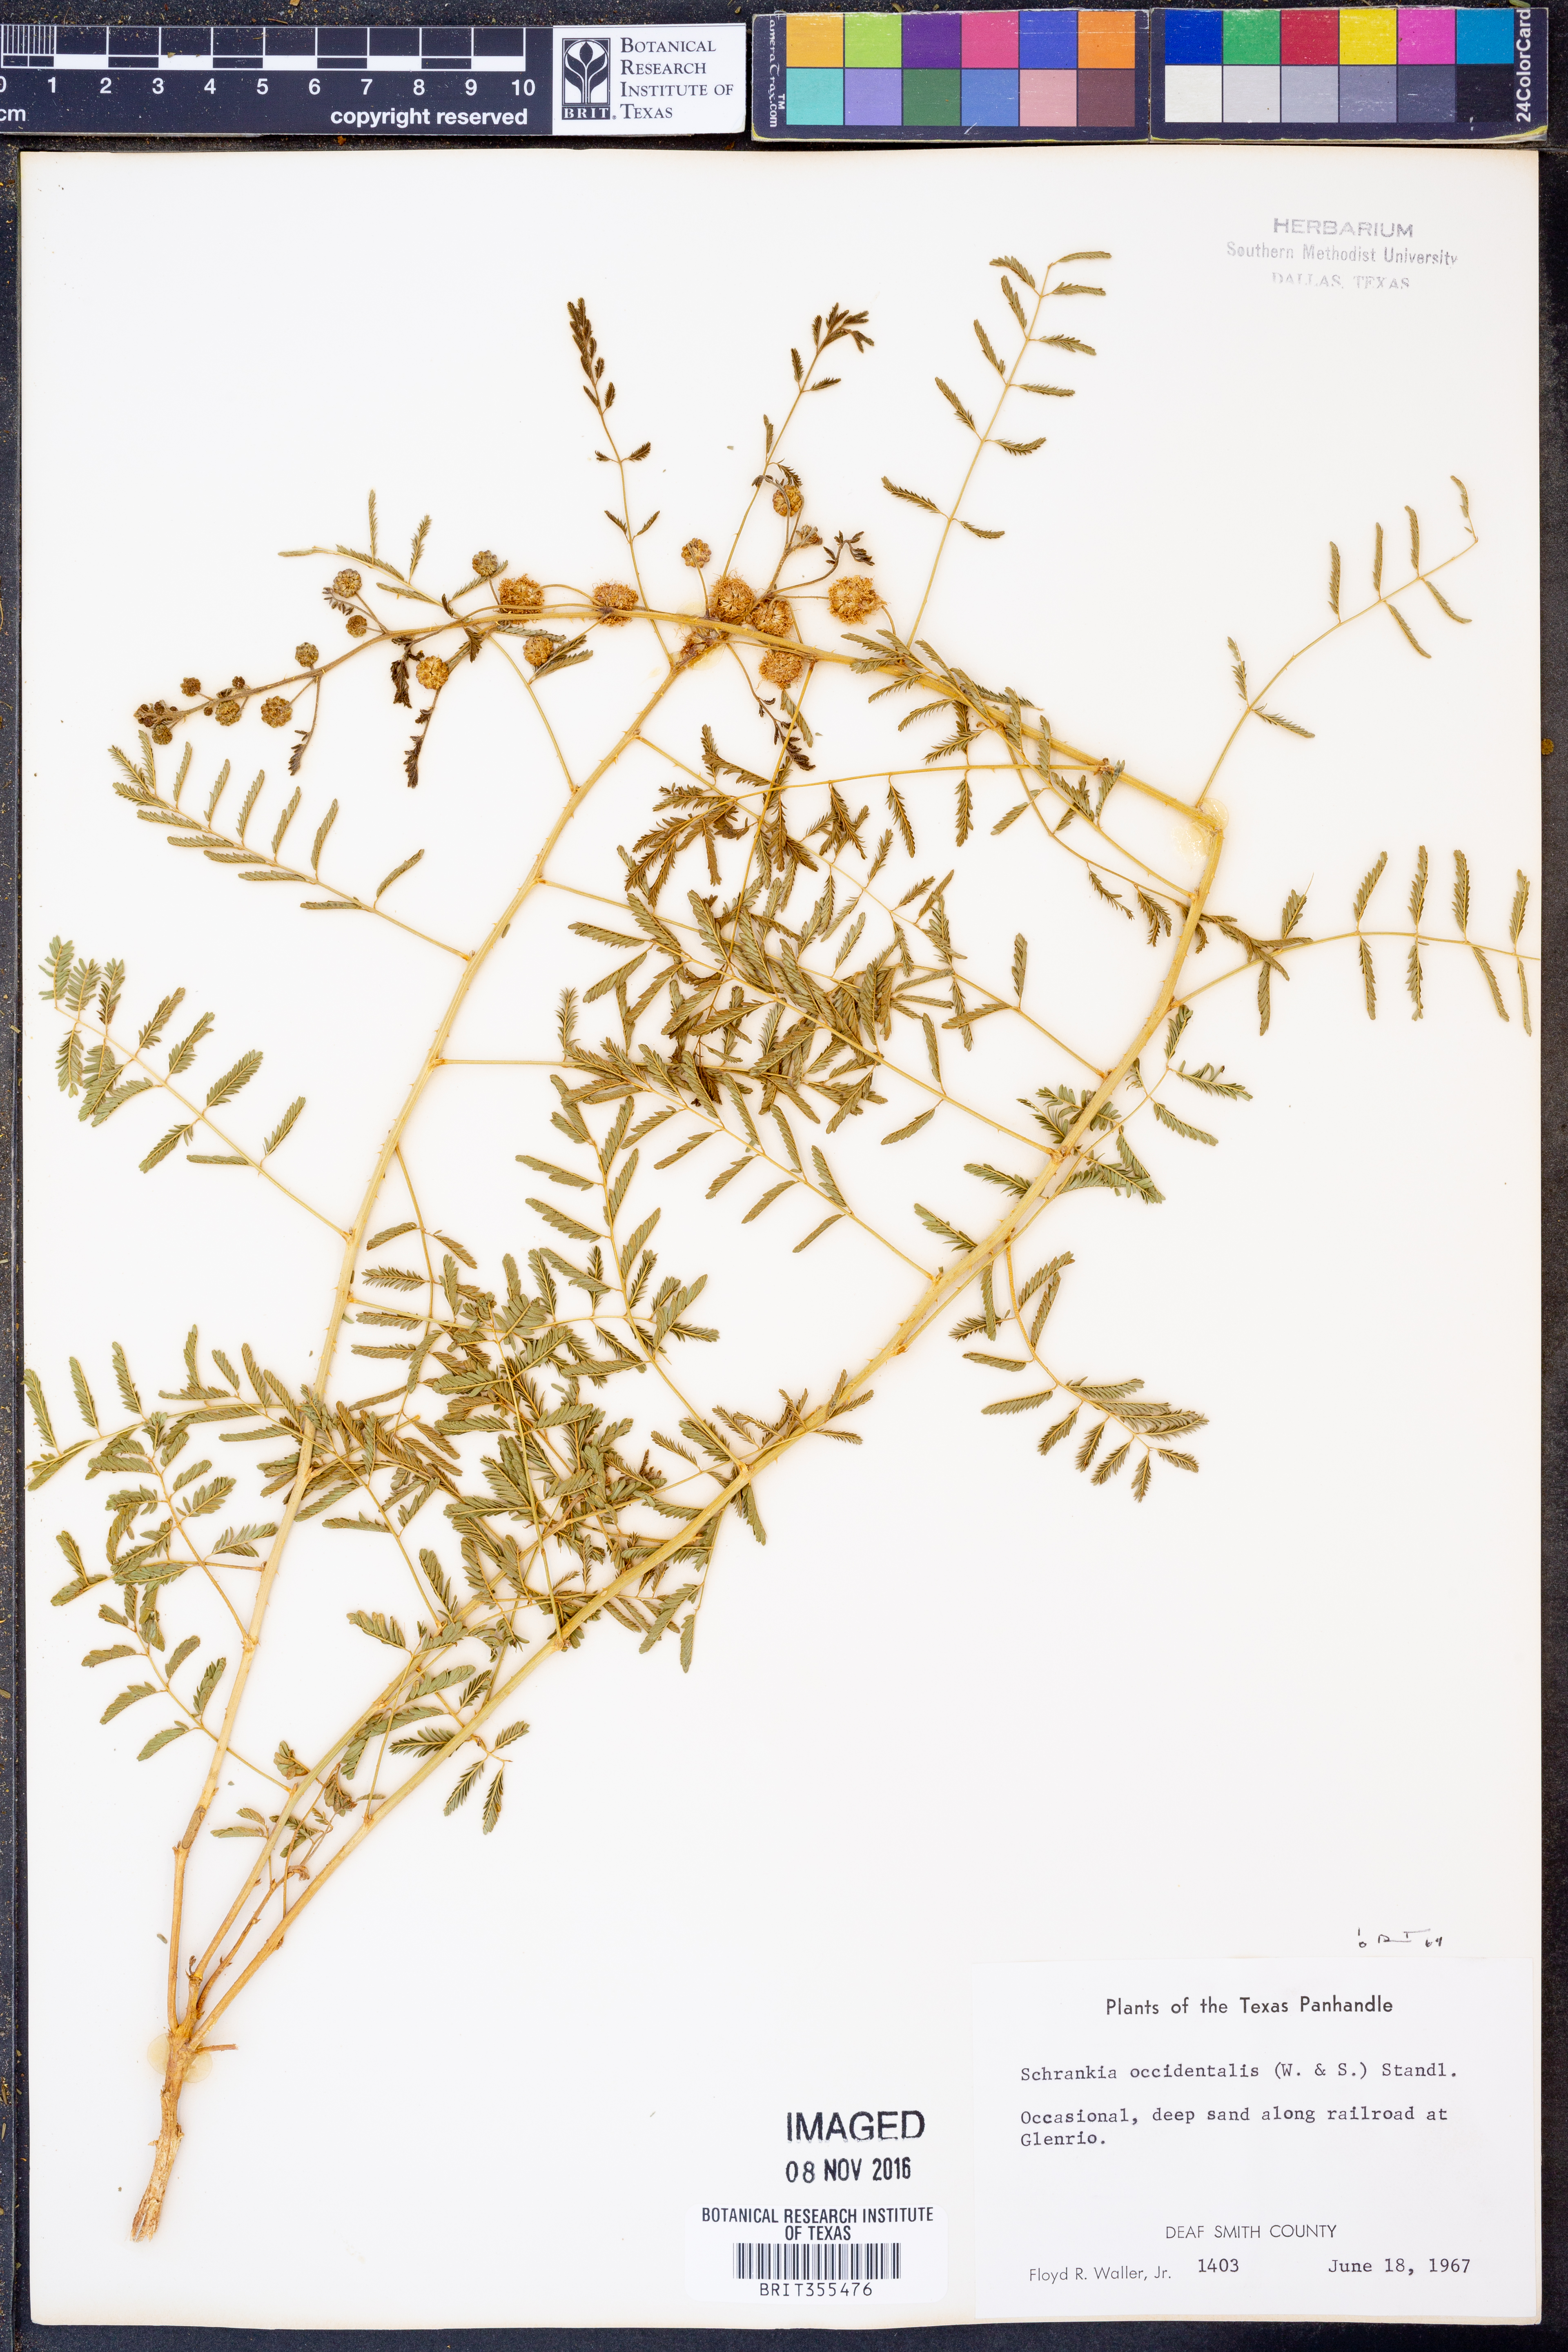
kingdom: Plantae
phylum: Tracheophyta
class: Magnoliopsida
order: Fabales
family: Fabaceae
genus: Mimosa
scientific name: Mimosa quadrivalvis
